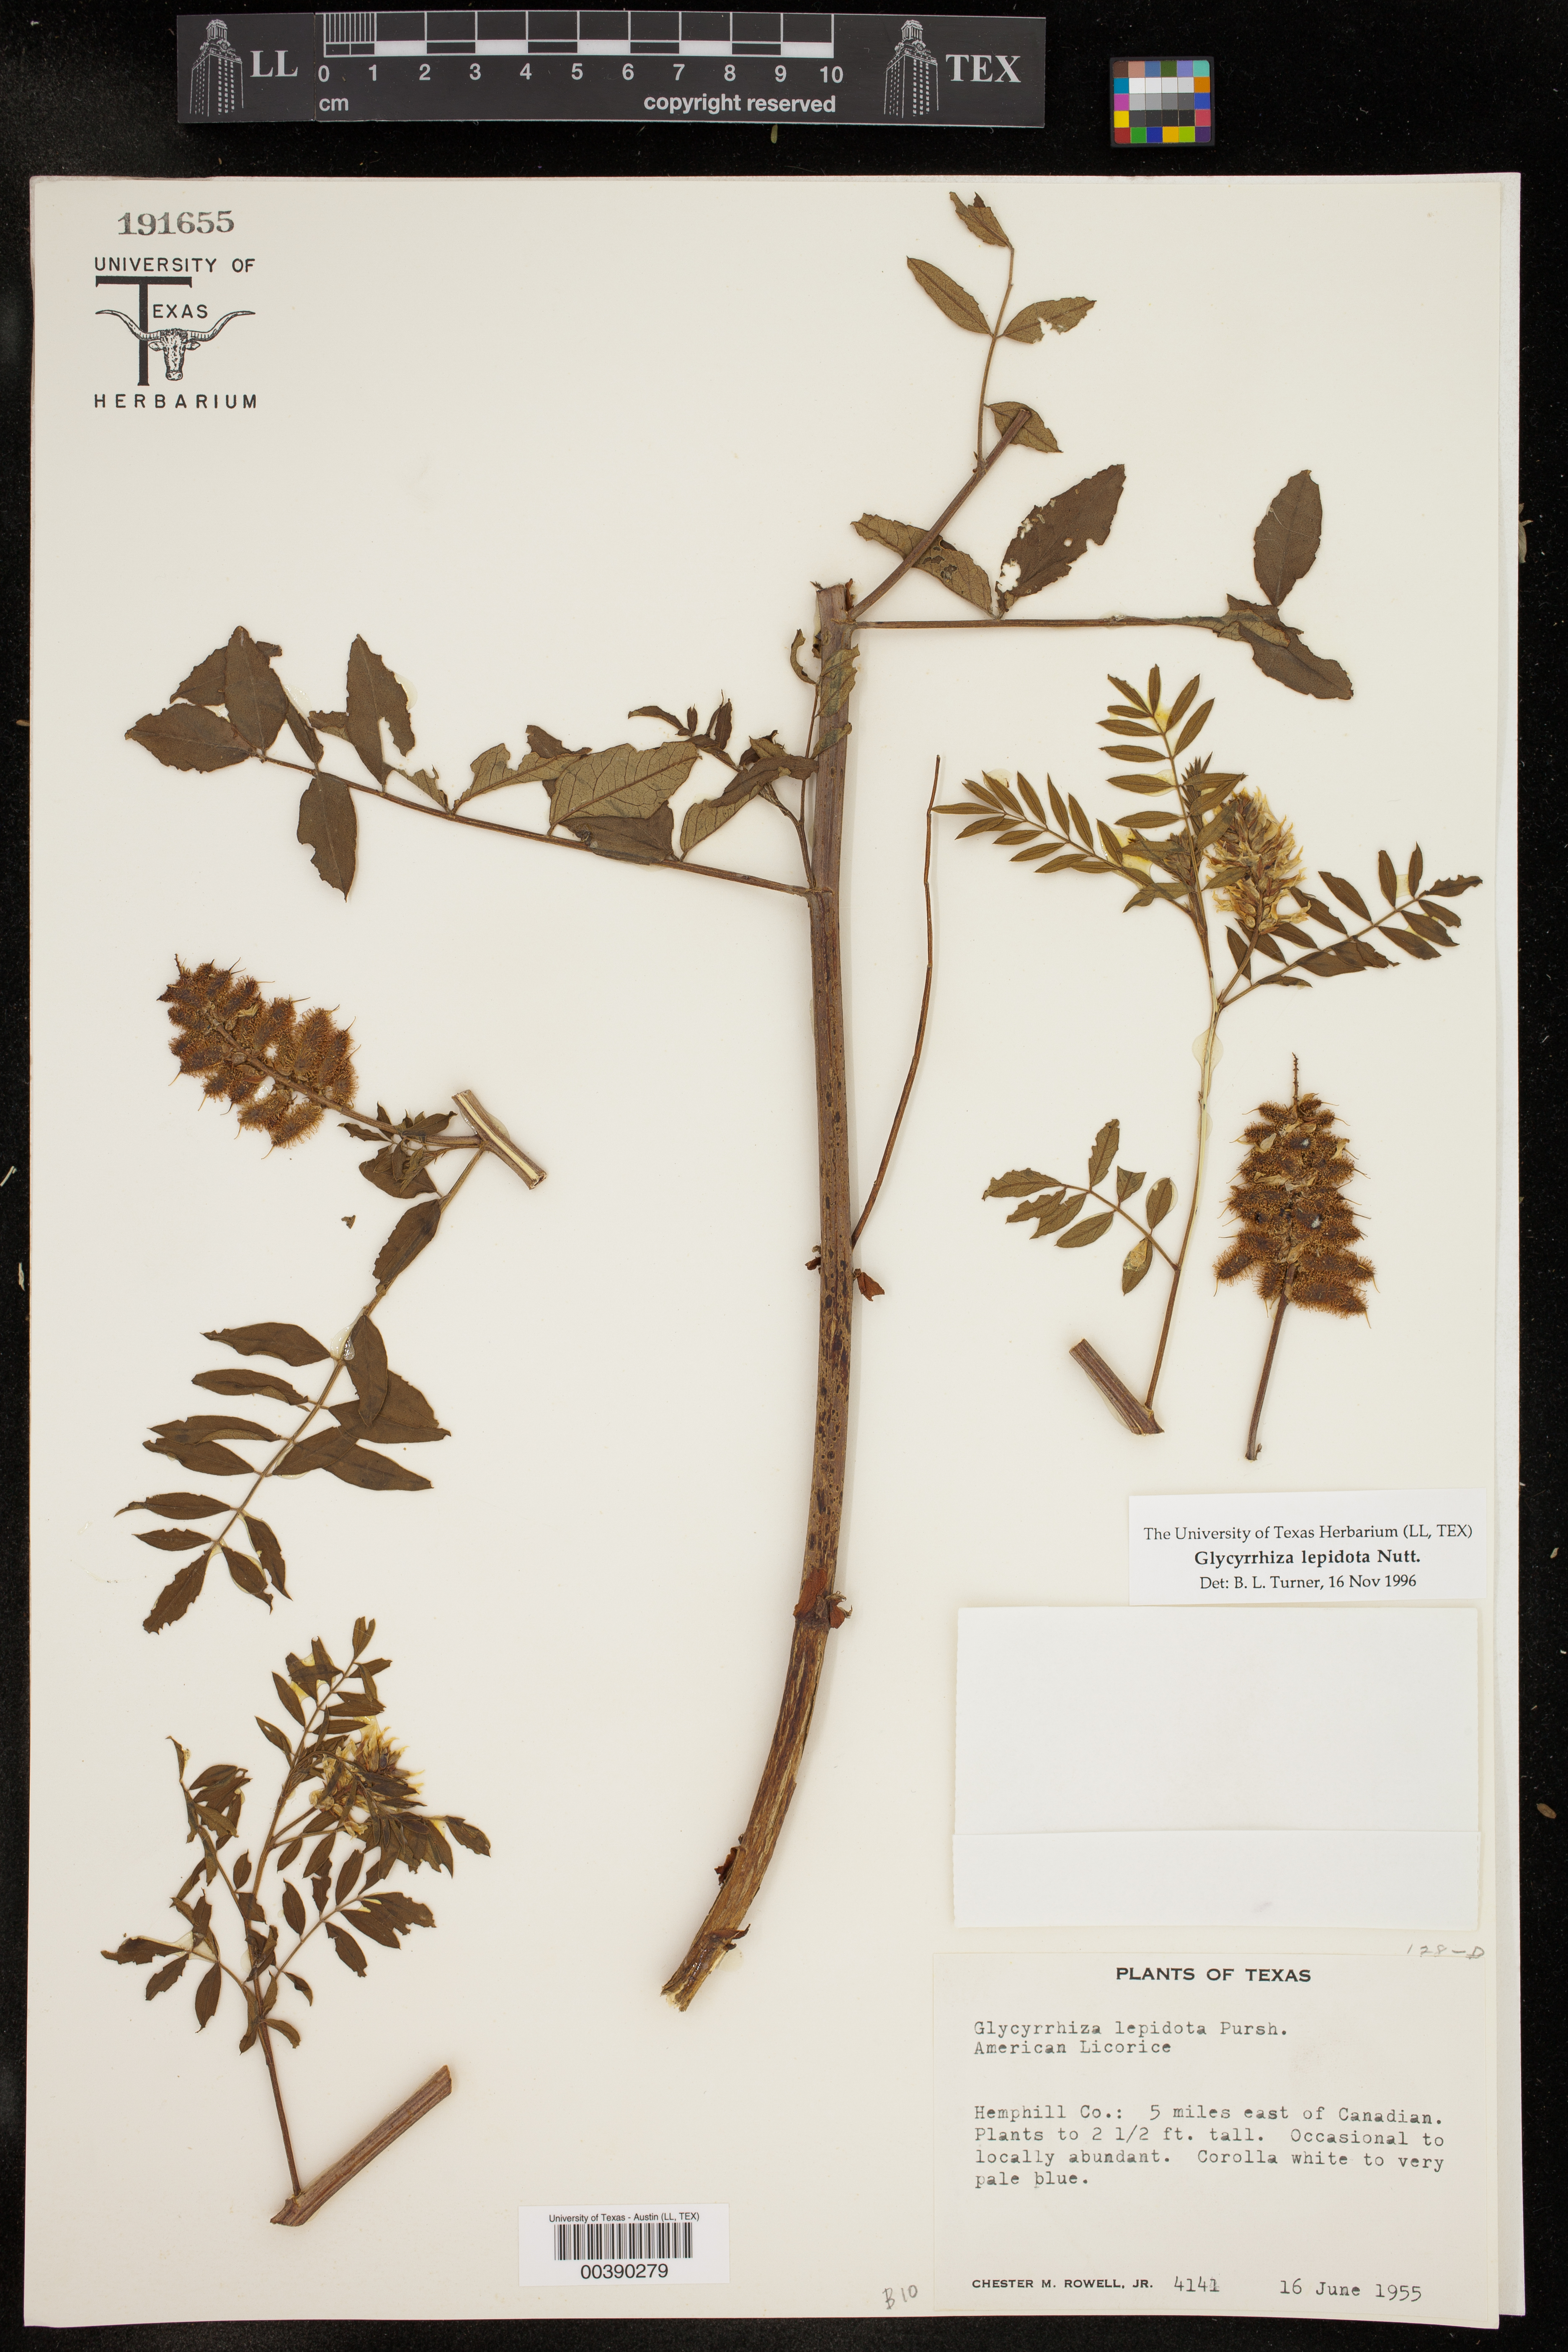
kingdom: Plantae
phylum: Tracheophyta
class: Magnoliopsida
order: Fabales
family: Fabaceae
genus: Glycyrrhiza
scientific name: Glycyrrhiza lepidota
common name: American liquorice
